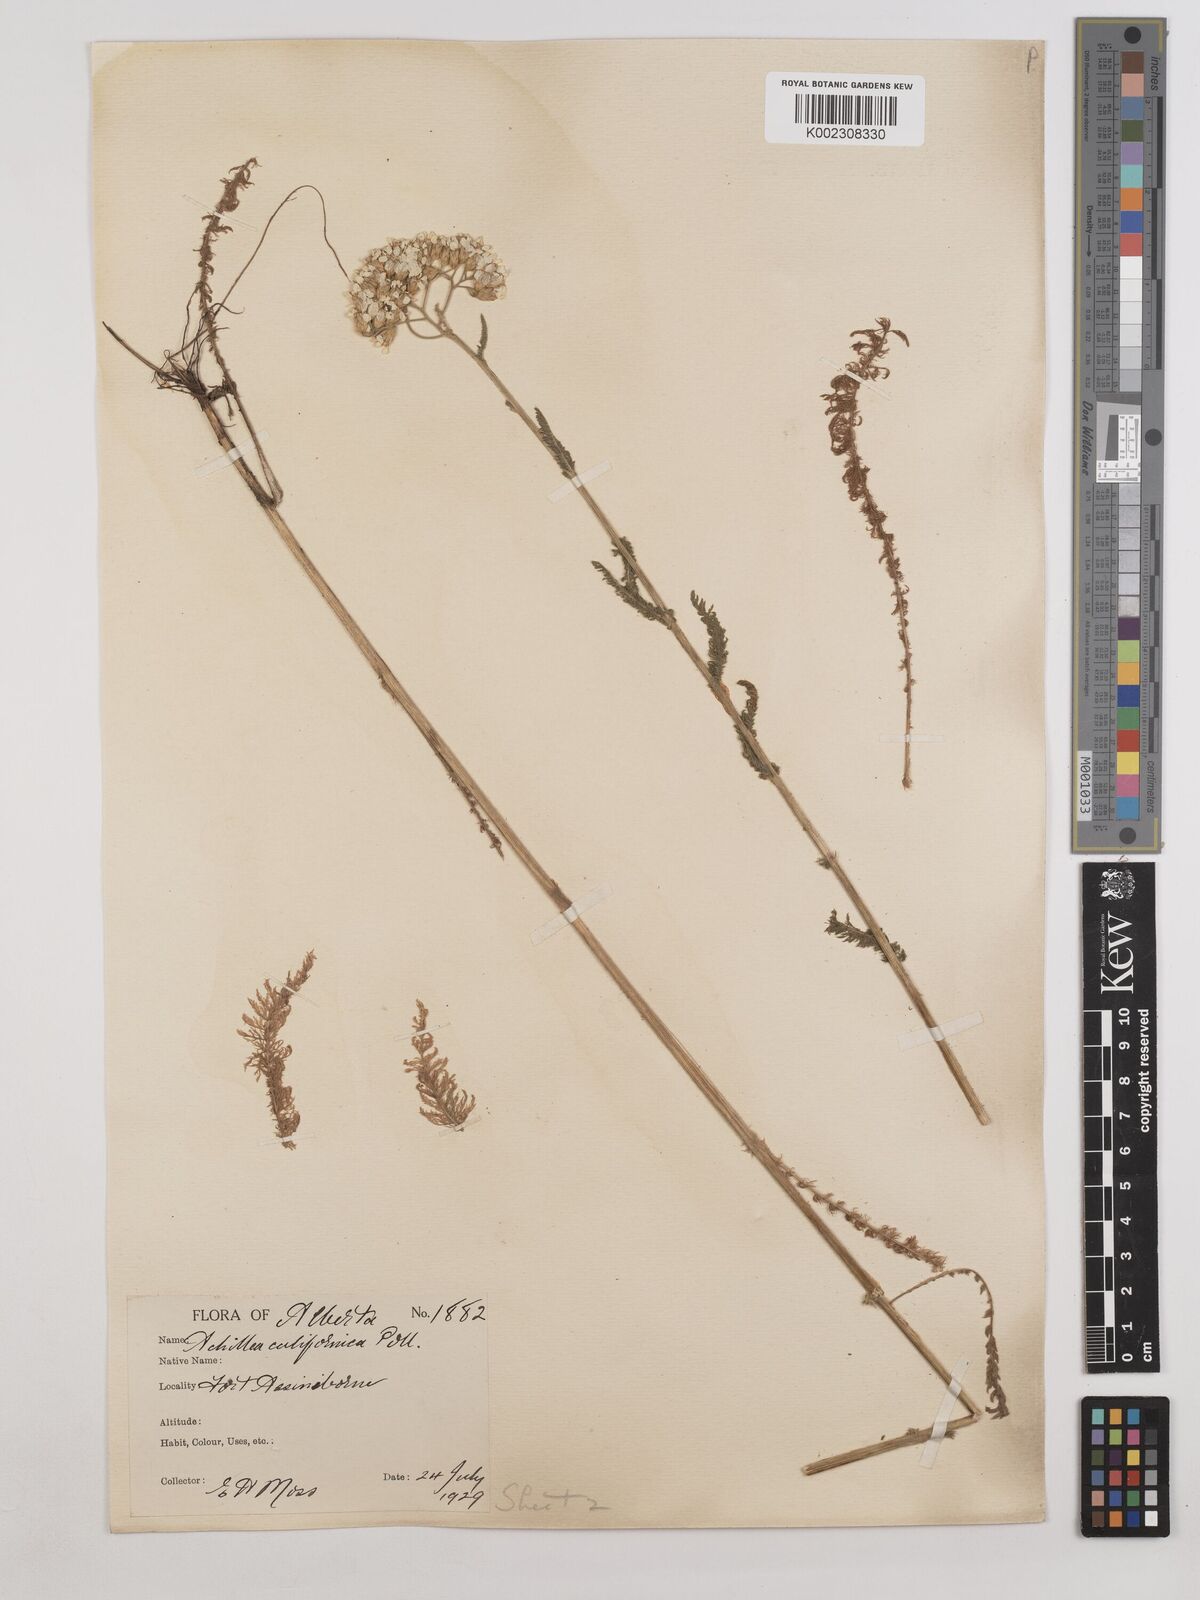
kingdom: Plantae
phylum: Tracheophyta
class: Magnoliopsida
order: Asterales
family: Asteraceae
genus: Achillea
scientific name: Achillea millefolium
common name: Yarrow
